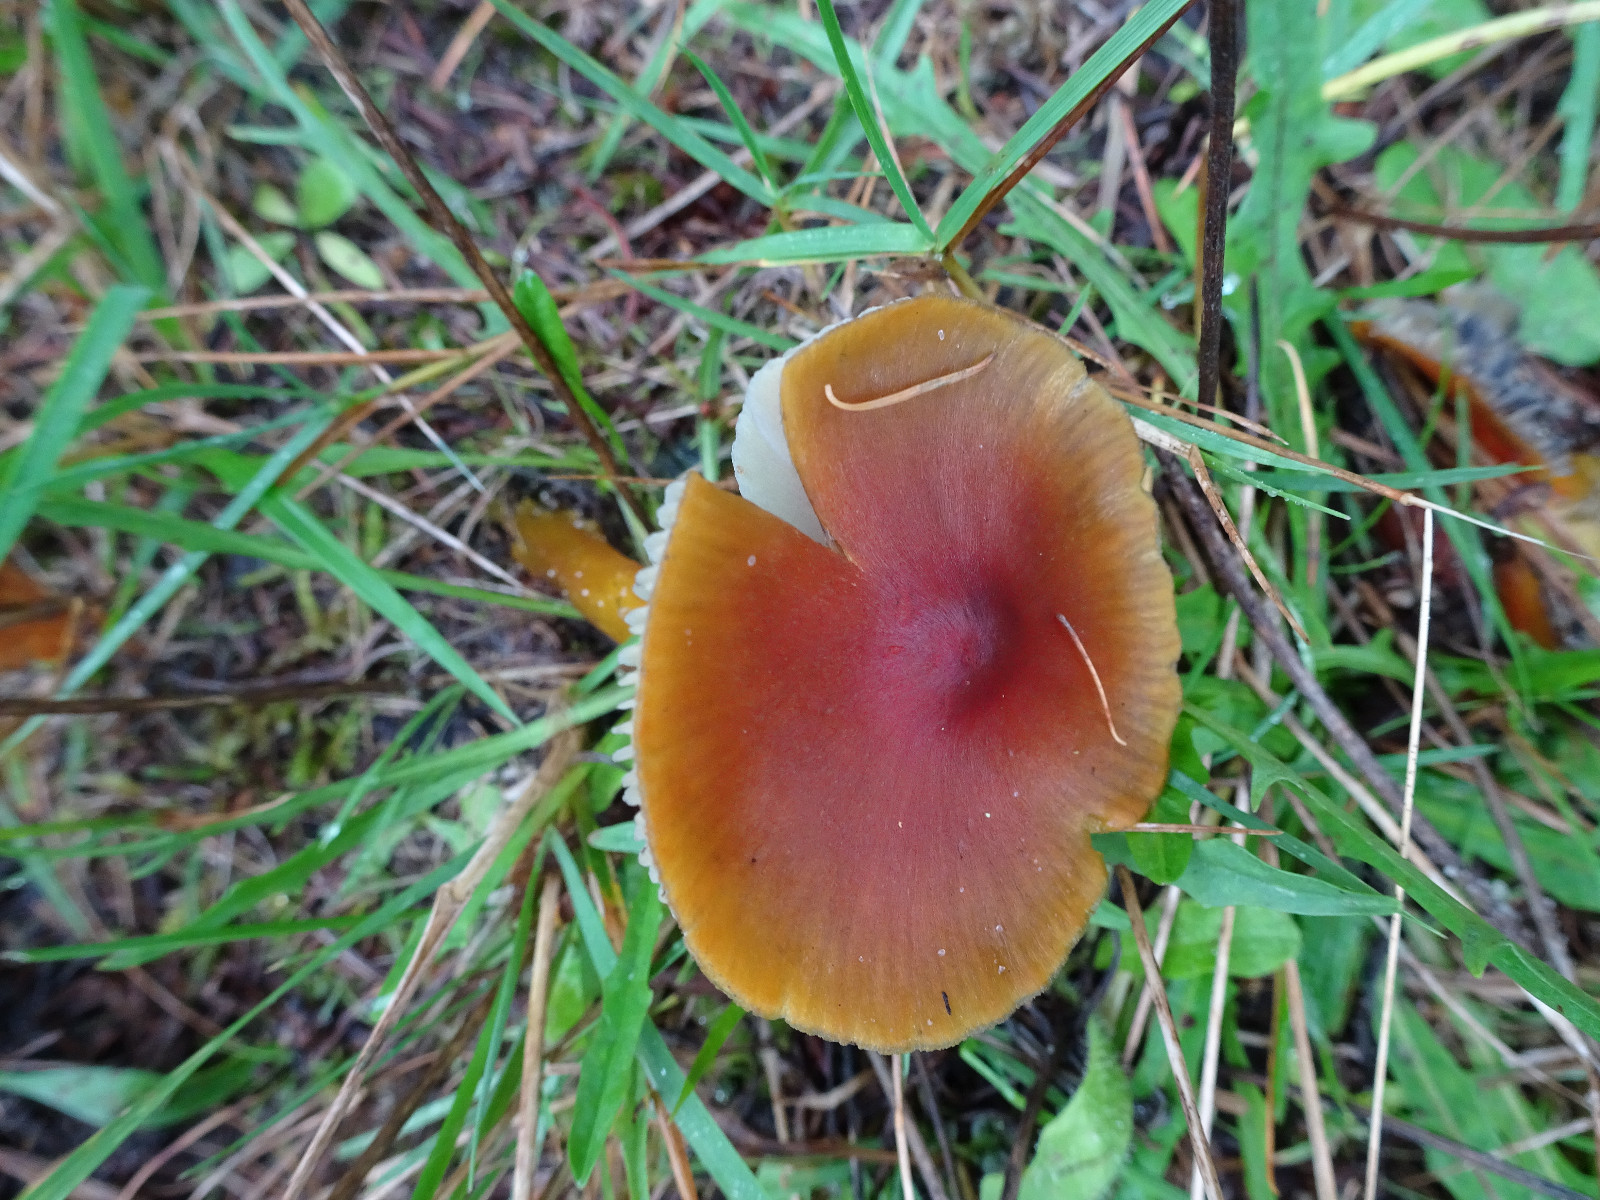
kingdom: Fungi
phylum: Basidiomycota
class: Agaricomycetes
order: Agaricales
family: Hygrophoraceae
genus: Hygrocybe
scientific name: Hygrocybe conica
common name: kegle-vokshat
